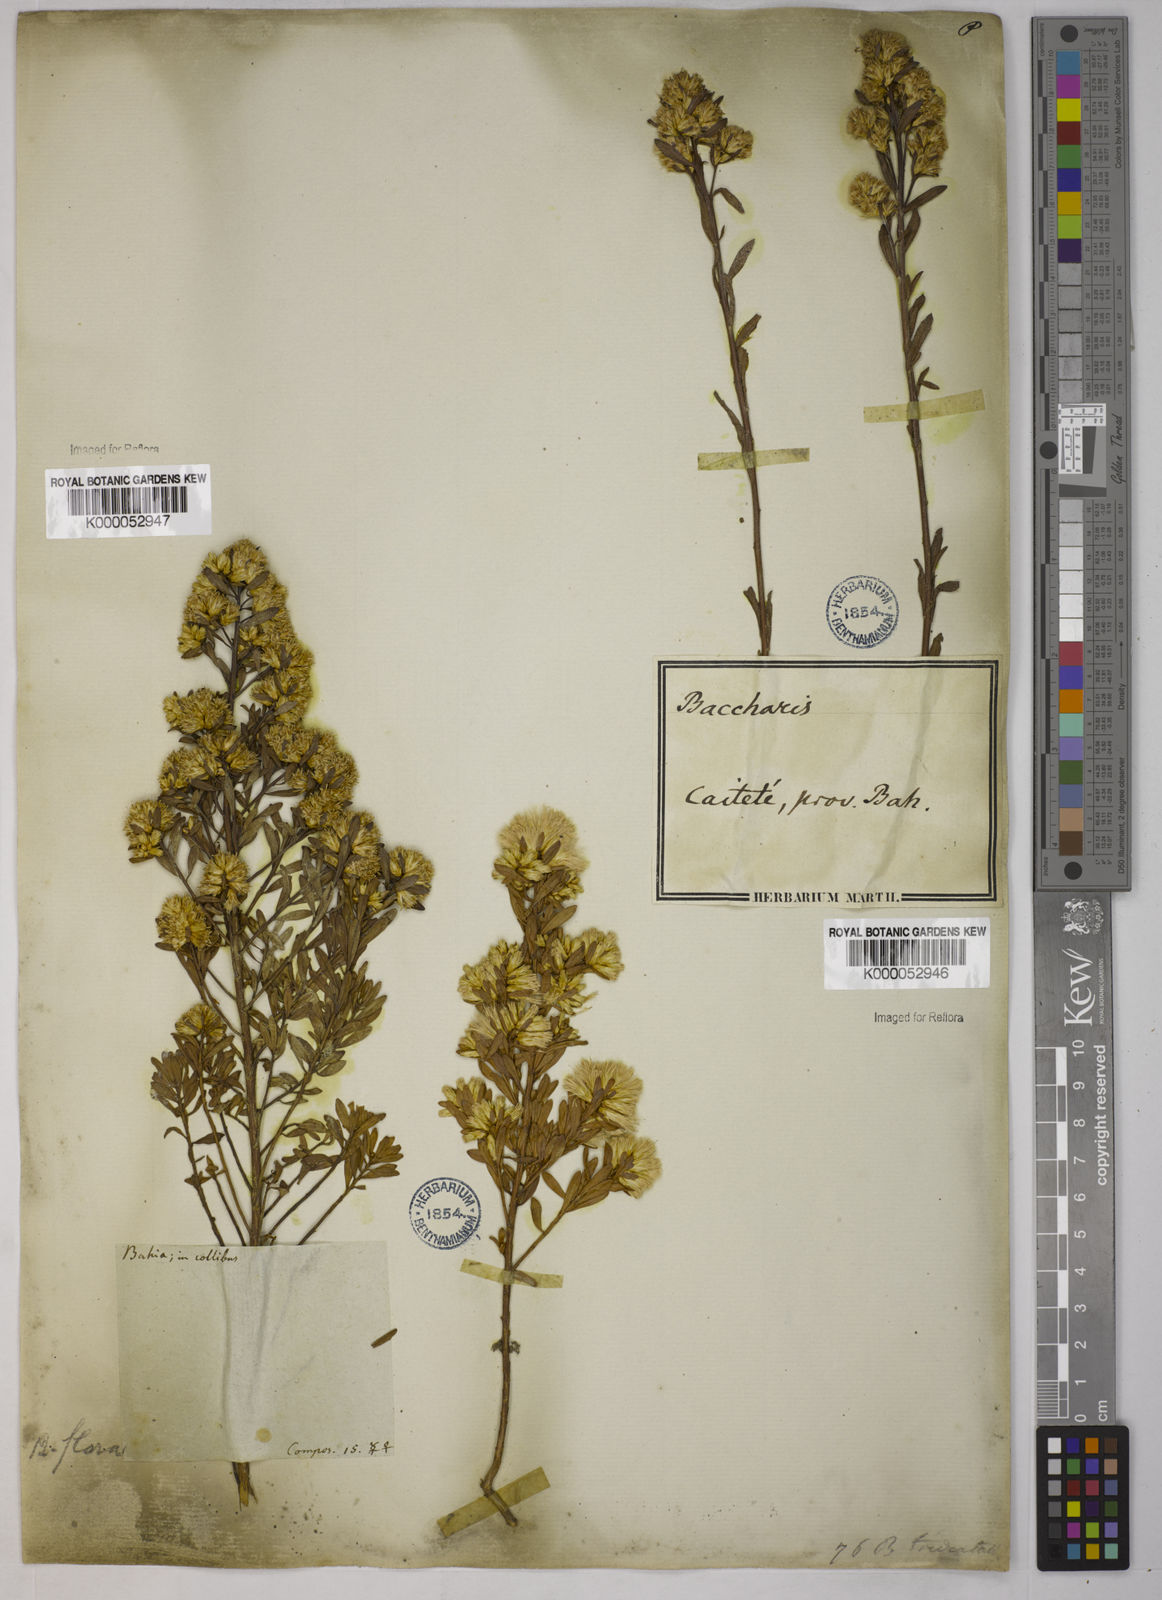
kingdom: Plantae
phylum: Tracheophyta
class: Magnoliopsida
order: Asterales
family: Asteraceae
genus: Baccharis
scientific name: Baccharis varians
